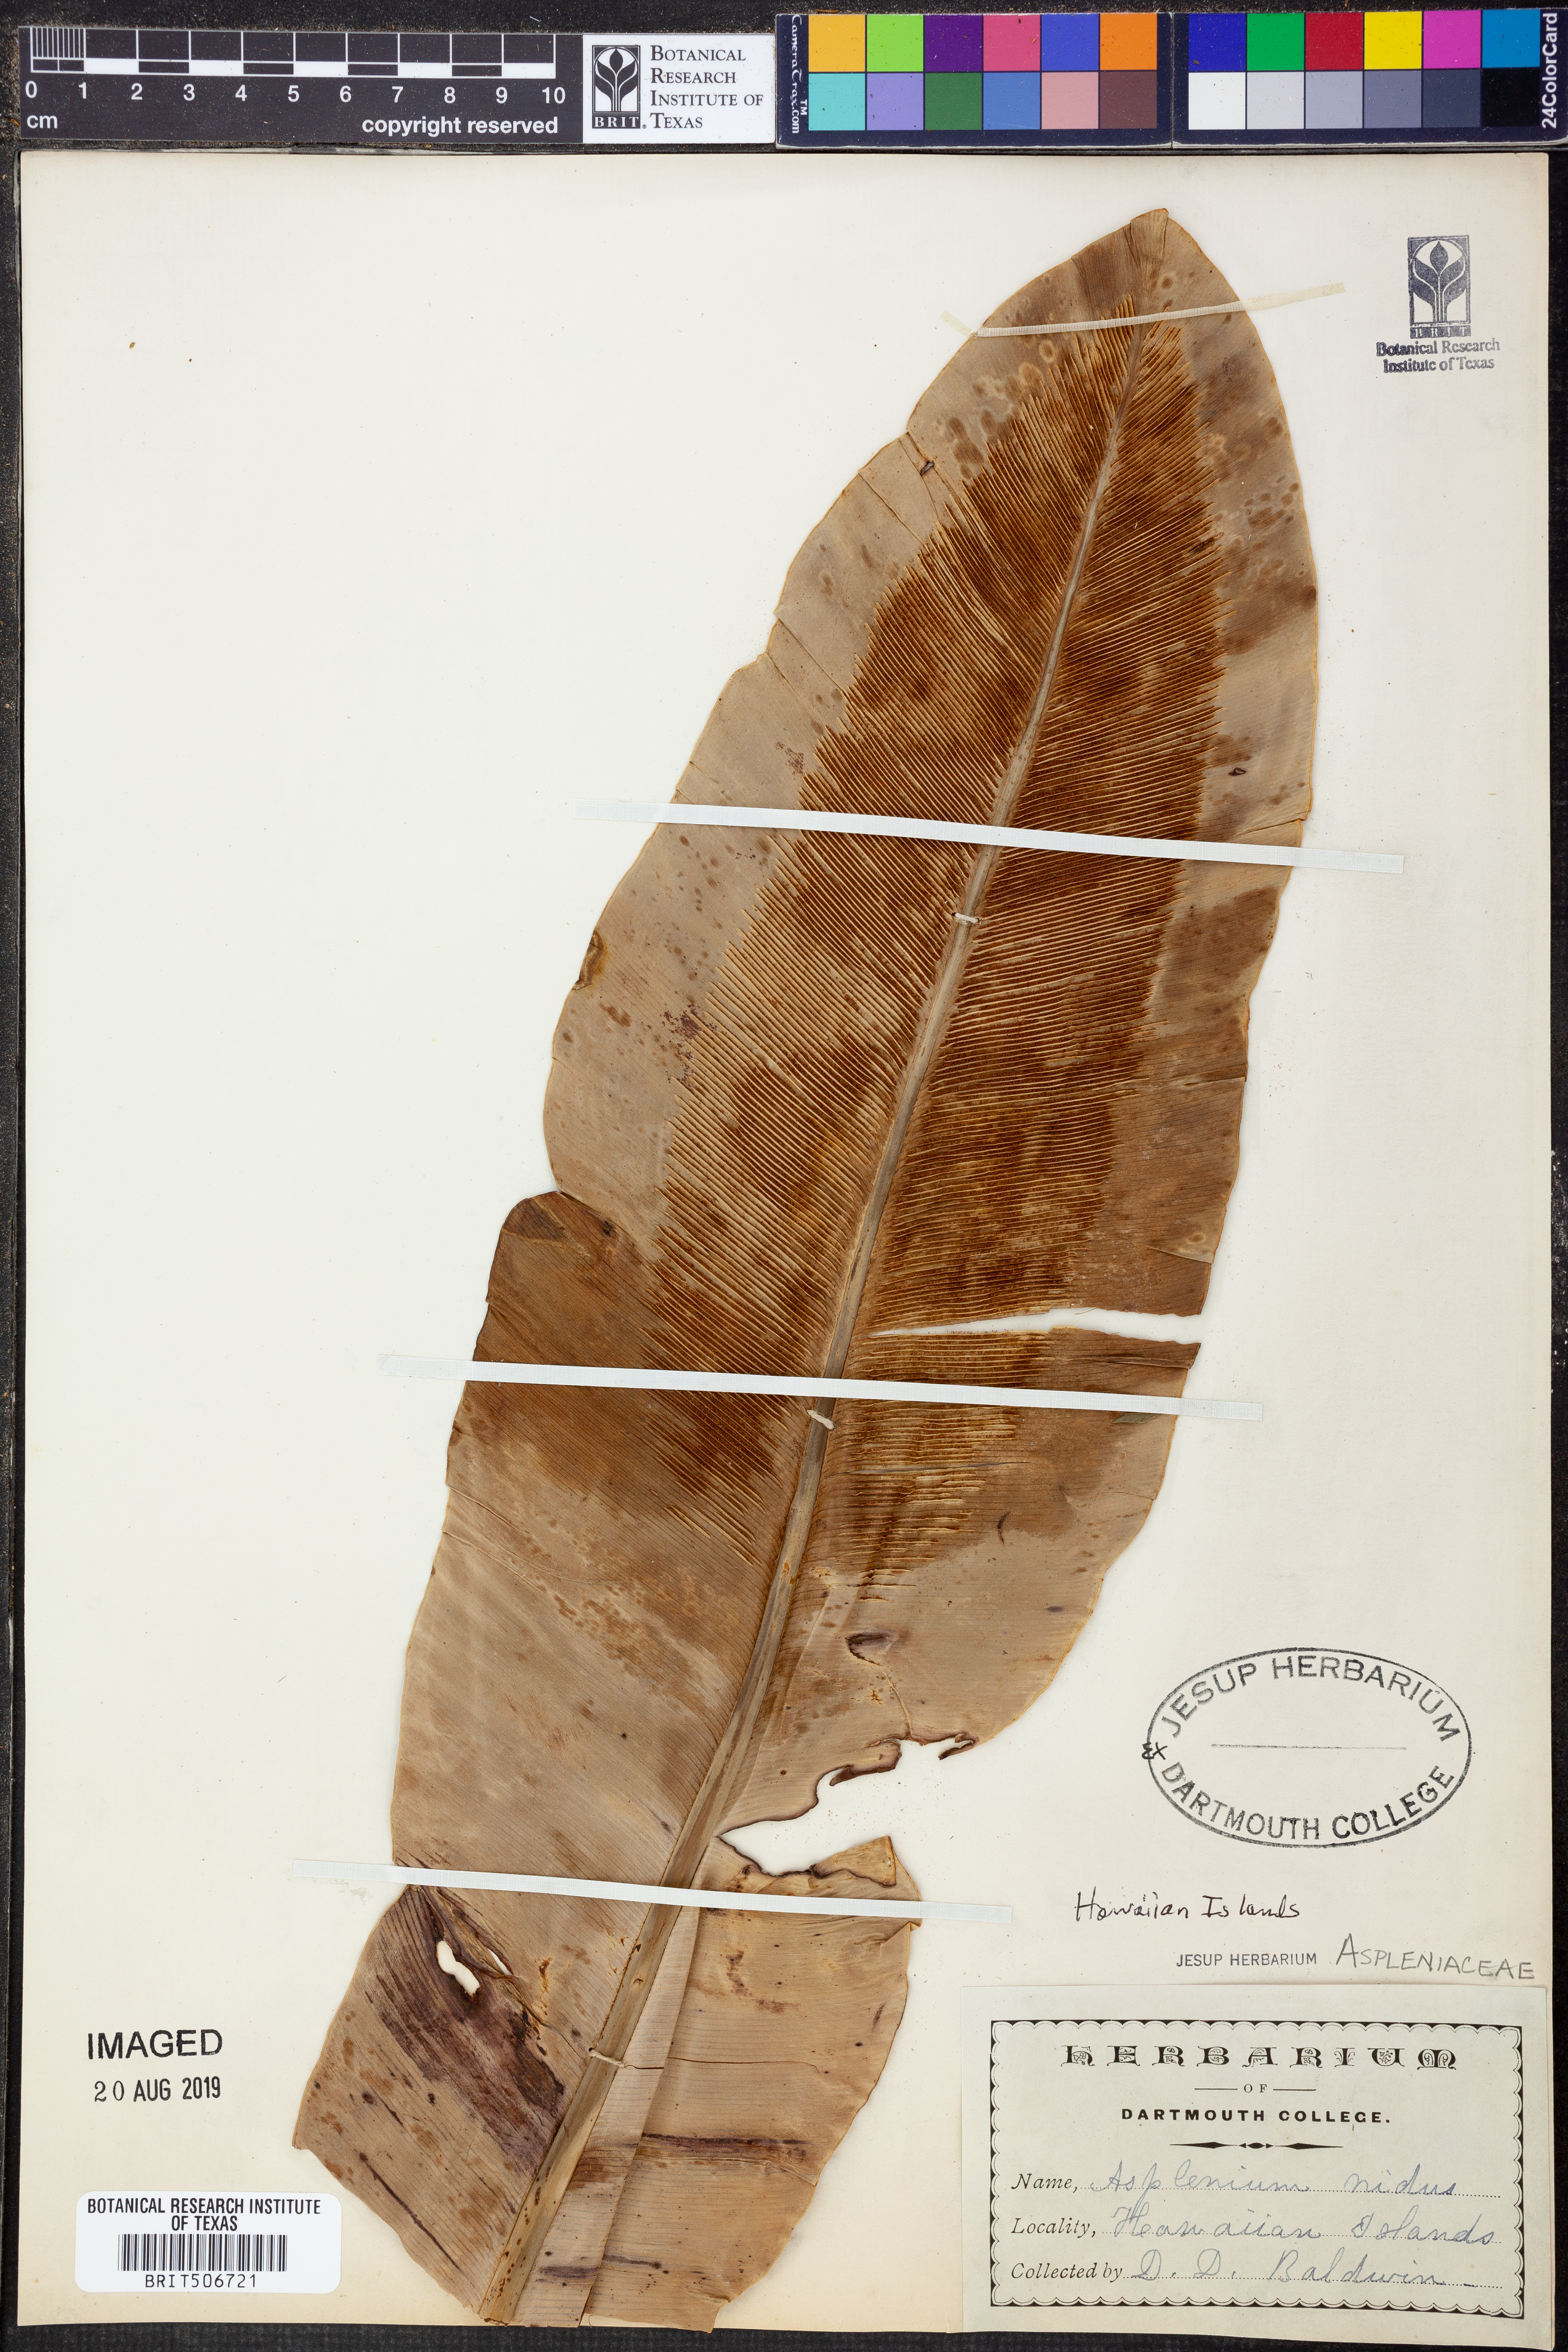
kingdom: Plantae
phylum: Tracheophyta
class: Polypodiopsida
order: Polypodiales
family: Aspleniaceae
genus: Asplenium
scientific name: Asplenium nidus
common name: Bird's-nest fern
